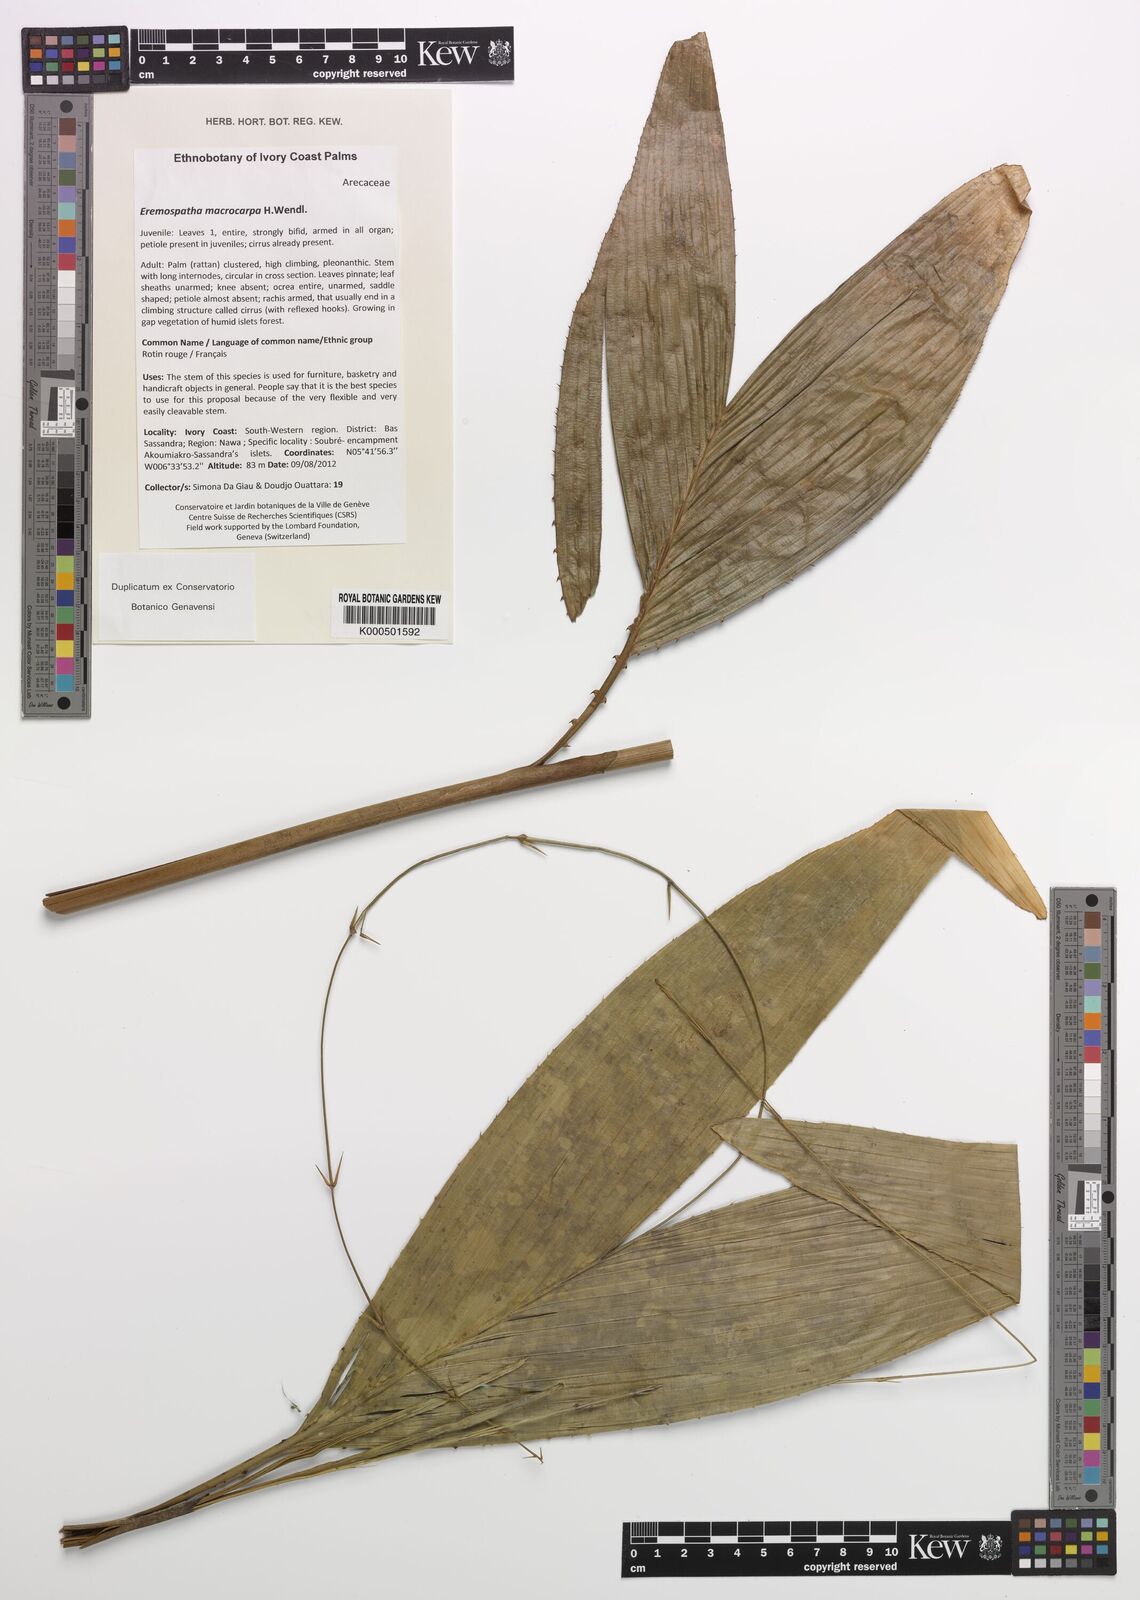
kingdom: Plantae
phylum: Tracheophyta
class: Liliopsida
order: Arecales
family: Arecaceae
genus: Eremospatha
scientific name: Eremospatha macrocarpa
